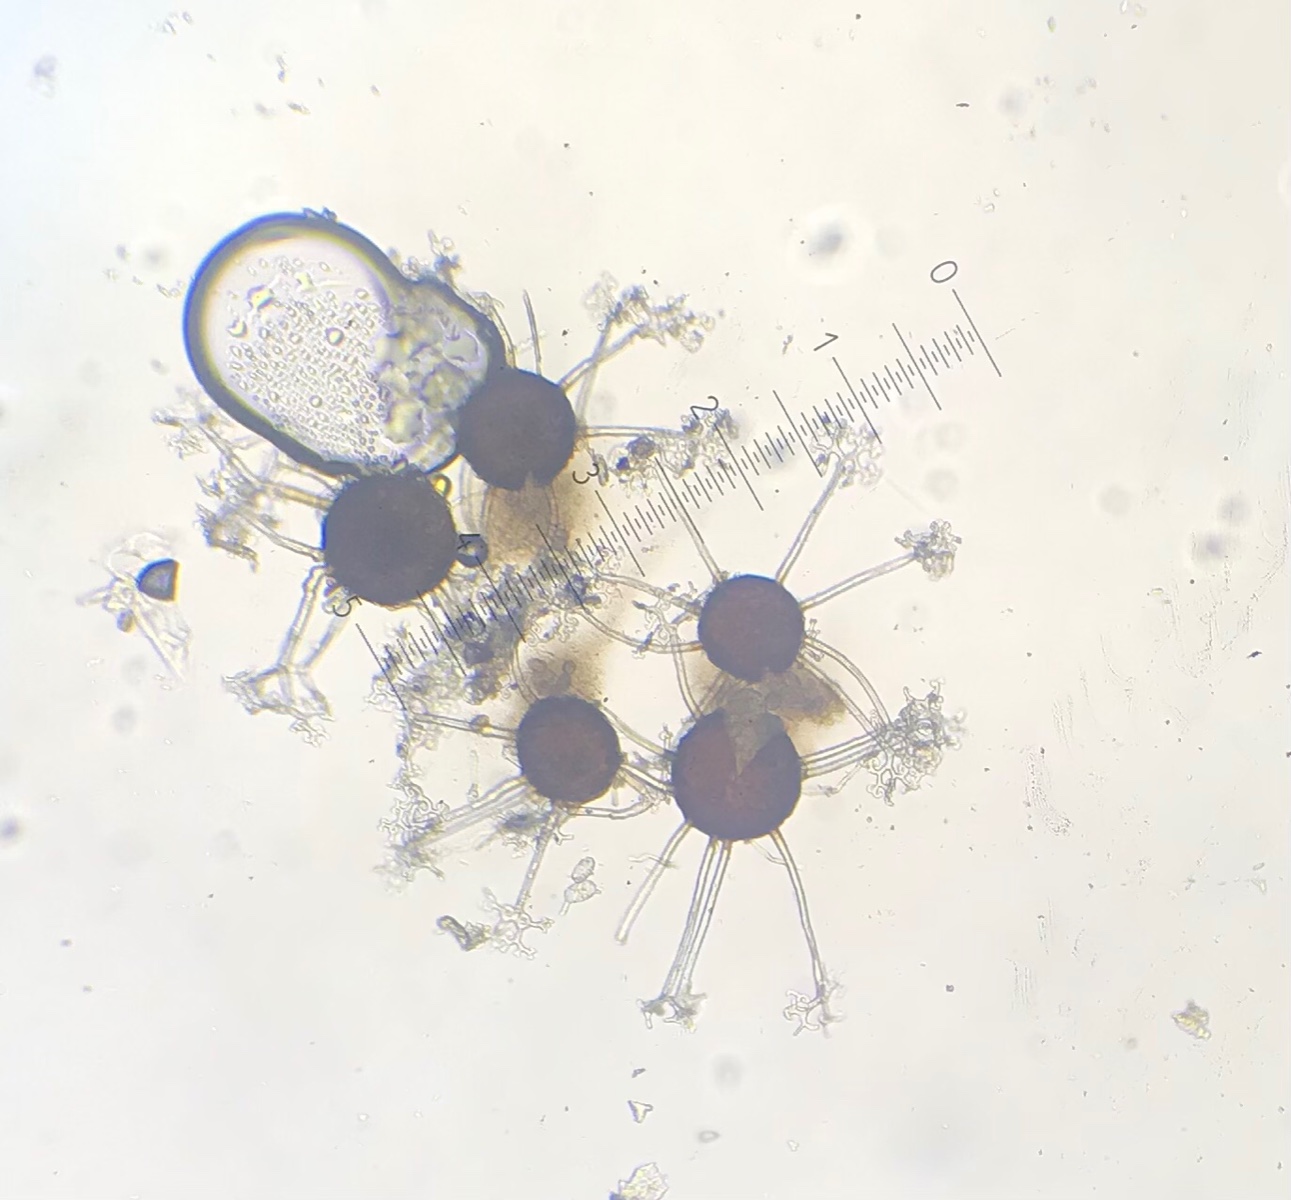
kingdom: Fungi
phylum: Ascomycota
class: Leotiomycetes
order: Helotiales
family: Erysiphaceae
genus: Erysiphe
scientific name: Erysiphe syringae-japonicae
